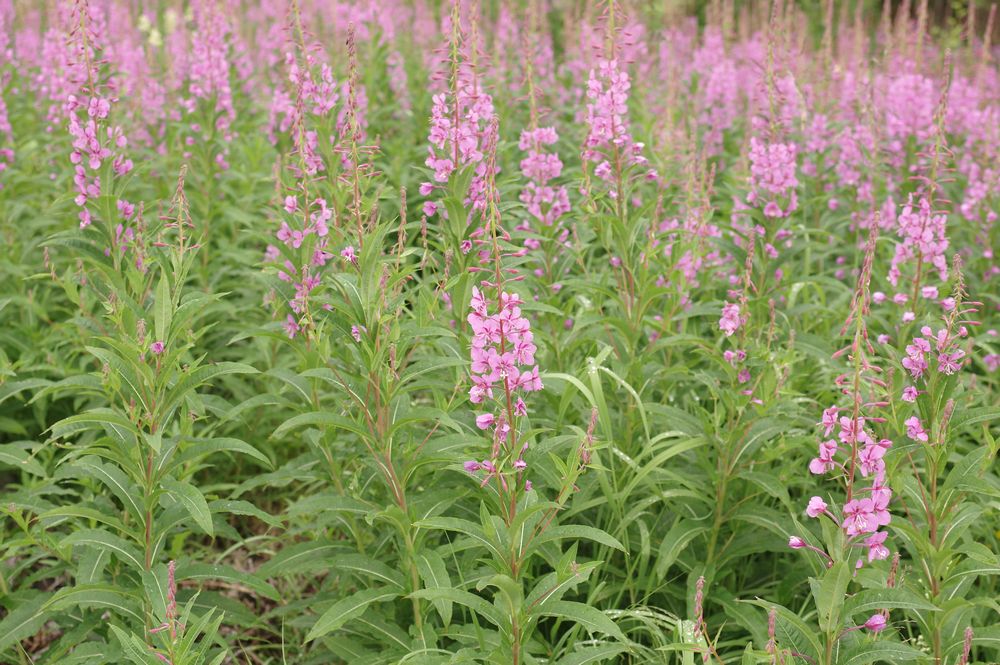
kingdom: Plantae
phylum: Tracheophyta
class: Magnoliopsida
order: Myrtales
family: Onagraceae
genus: Chamaenerion
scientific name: Chamaenerion angustifolium
